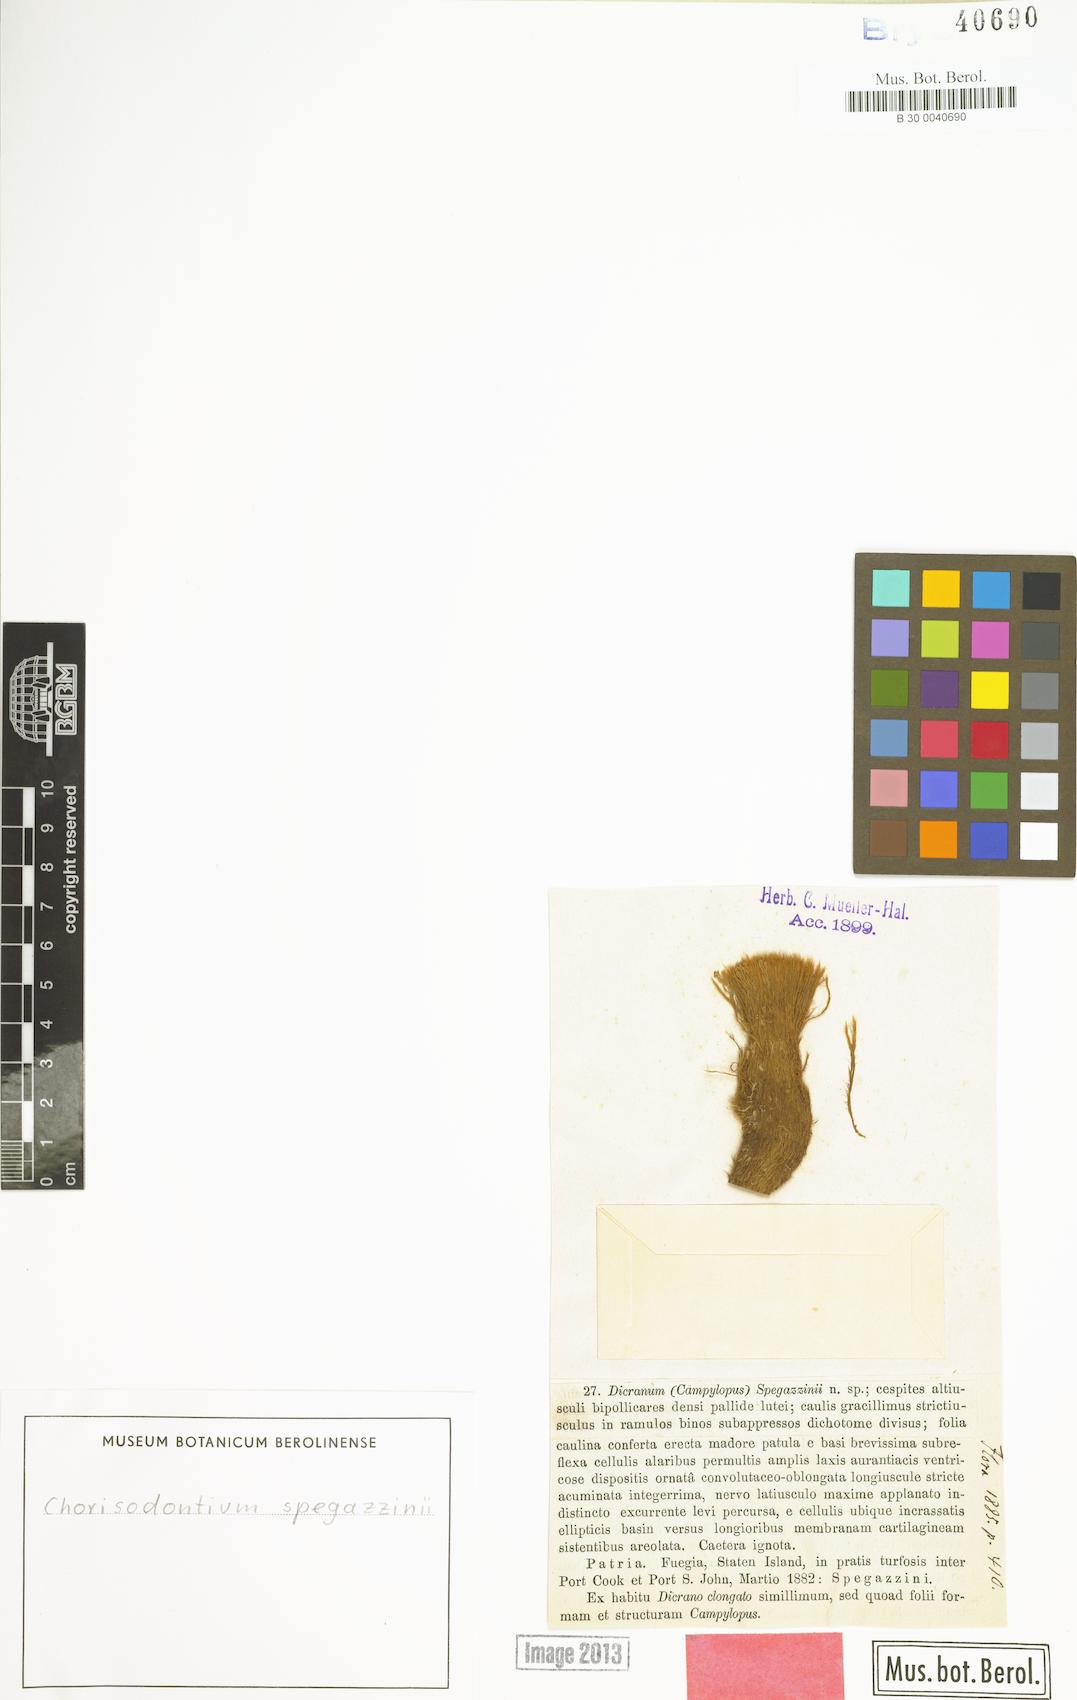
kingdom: Plantae
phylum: Bryophyta
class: Bryopsida
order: Dicranales
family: Dicranaceae
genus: Chorisodontium
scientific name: Chorisodontium spegazzinii
